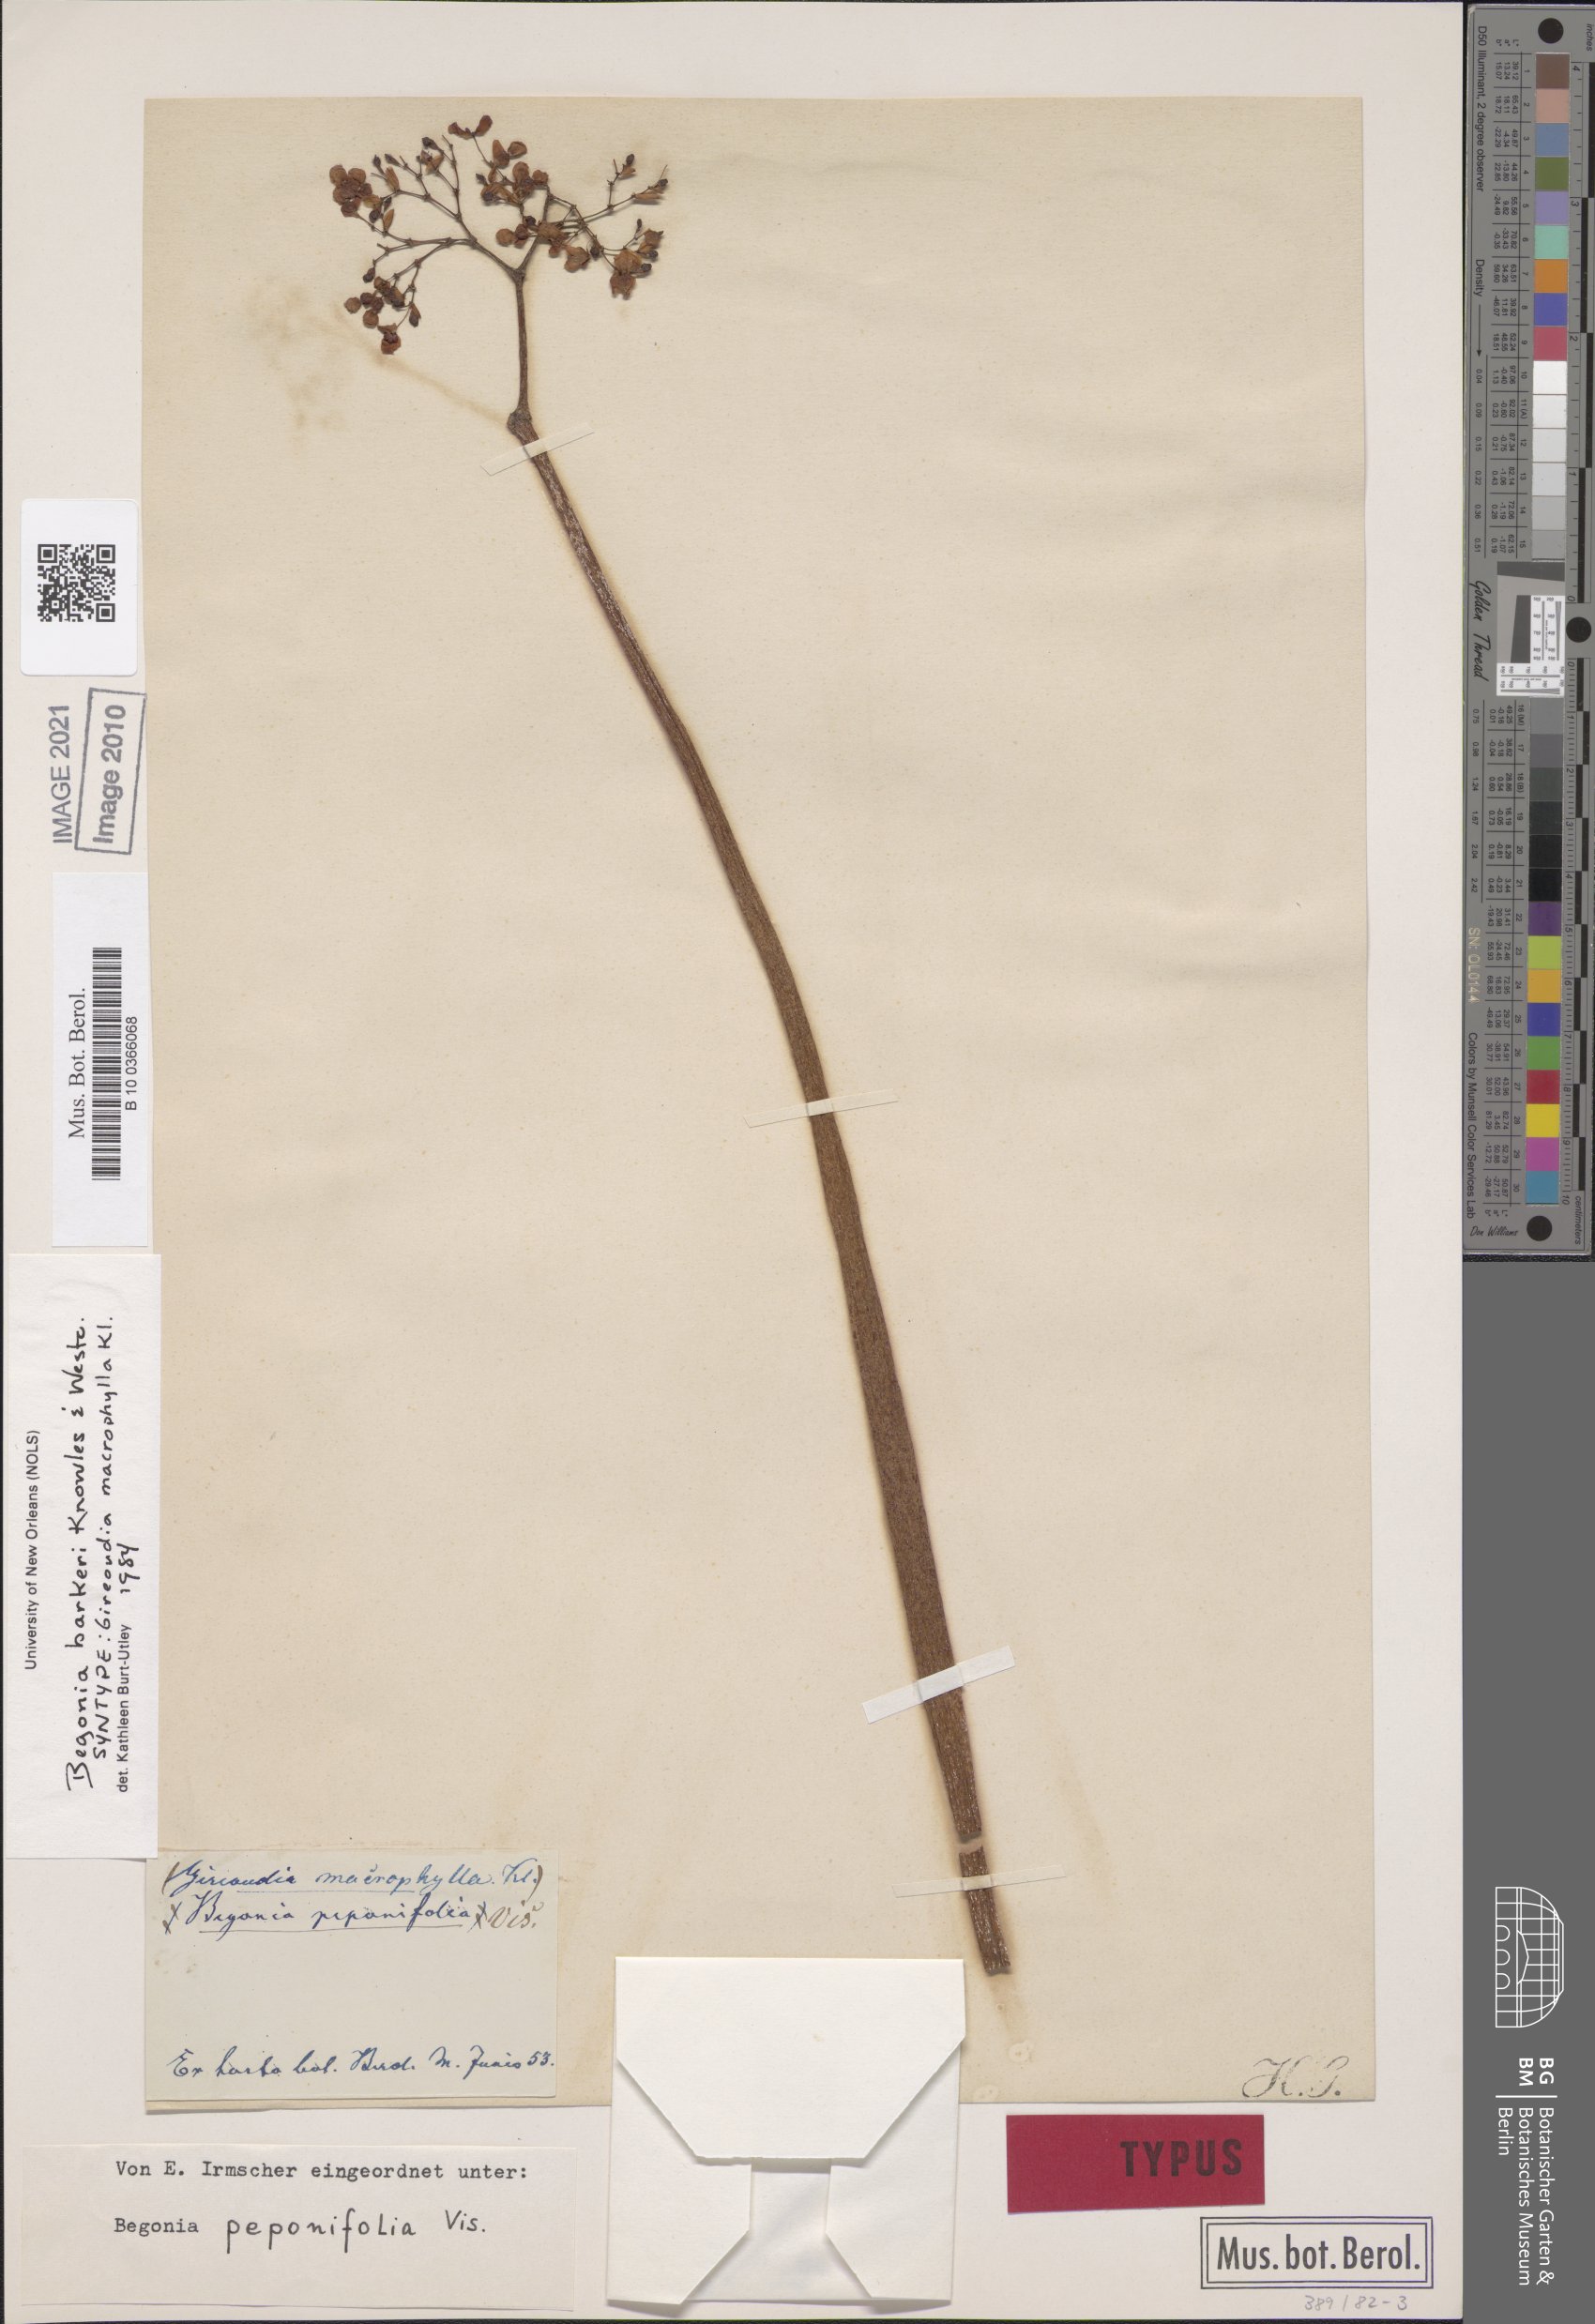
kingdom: Plantae
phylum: Tracheophyta
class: Magnoliopsida
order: Cucurbitales
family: Begoniaceae
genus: Begonia
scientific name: Begonia barkeri
